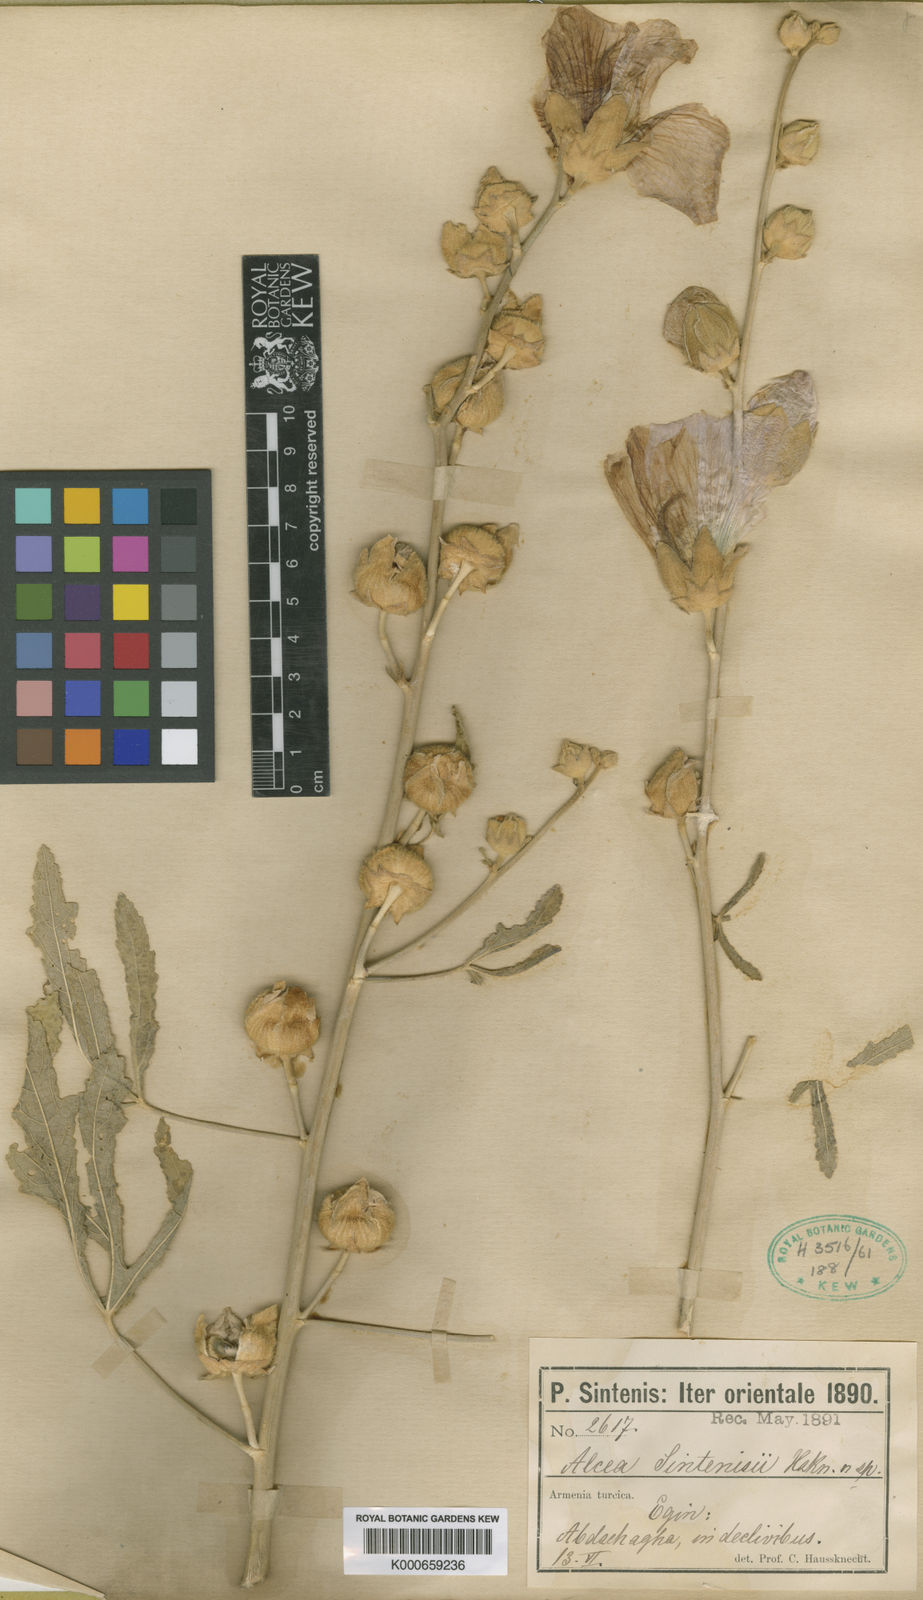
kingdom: Plantae
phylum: Tracheophyta
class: Magnoliopsida
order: Malvales
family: Malvaceae
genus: Althaea
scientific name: Althaea sintenisii
